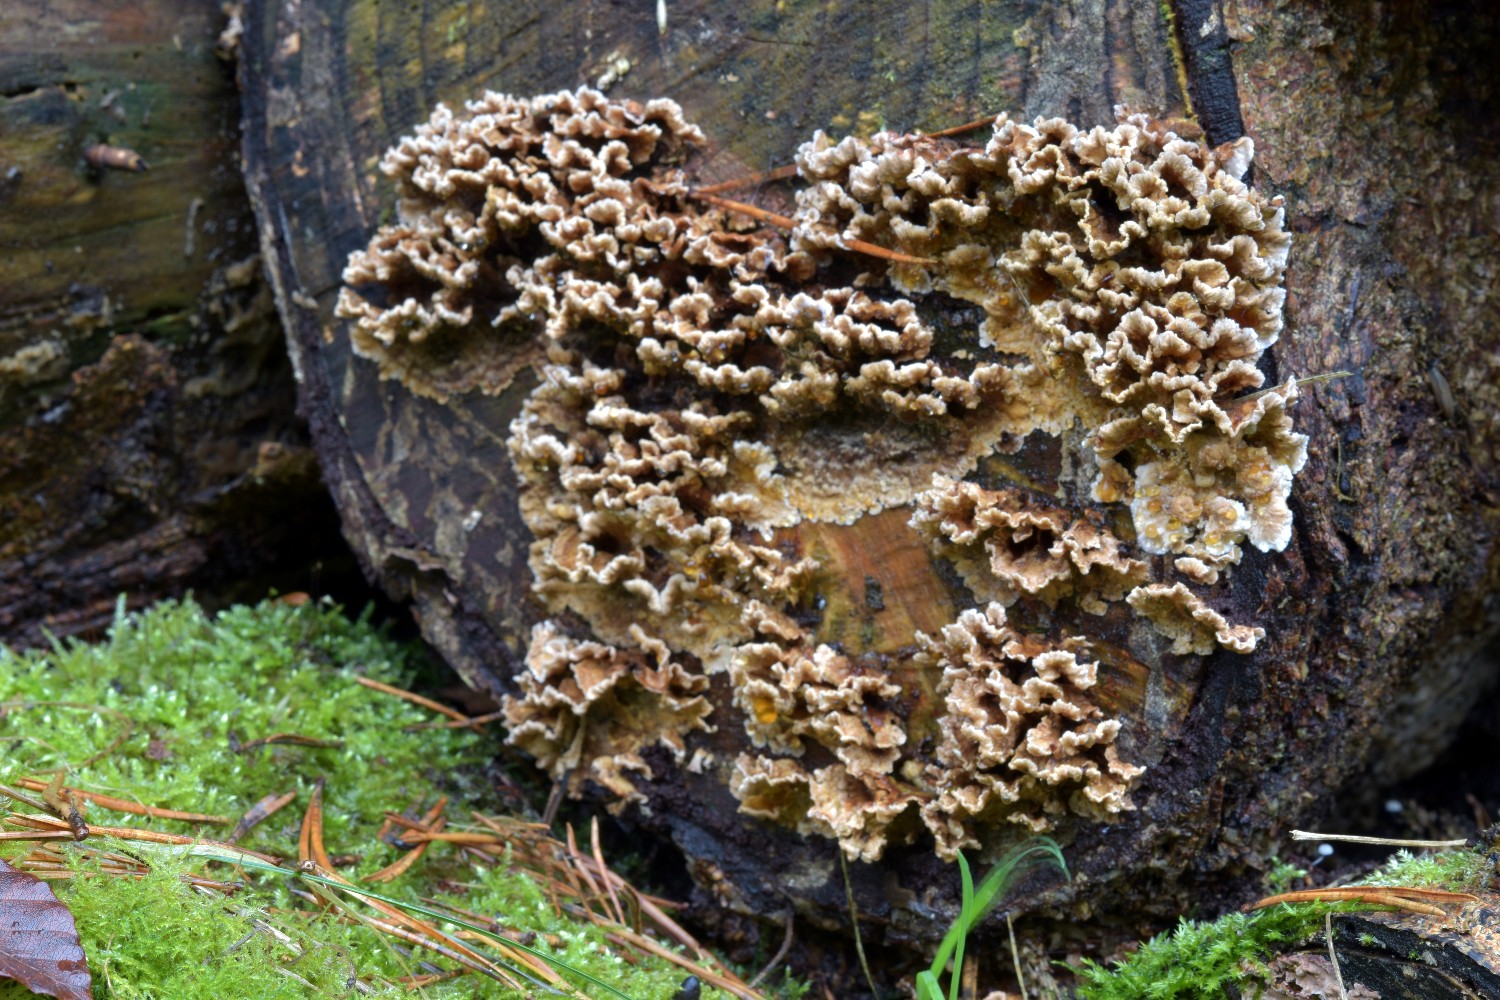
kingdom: Fungi
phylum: Basidiomycota
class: Agaricomycetes
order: Russulales
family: Stereaceae
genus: Stereum
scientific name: Stereum sanguinolentum
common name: blødende lædersvamp
